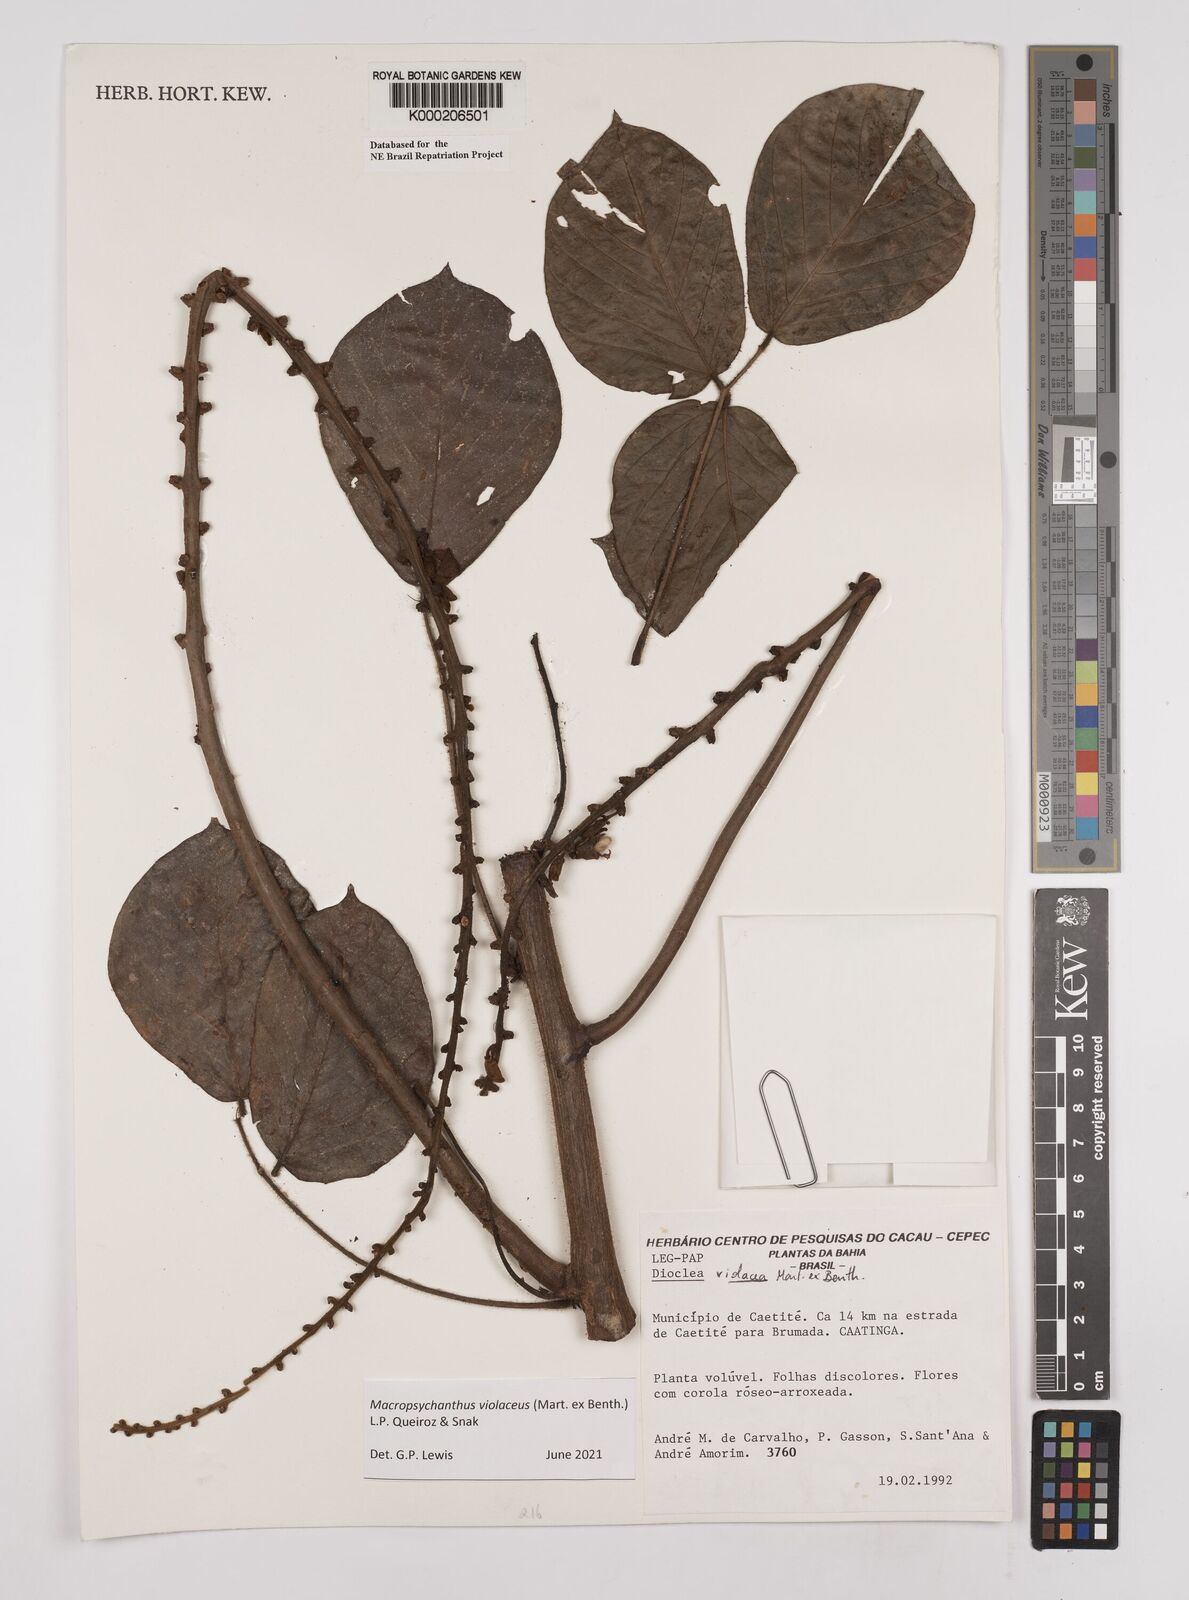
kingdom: Plantae
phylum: Tracheophyta
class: Magnoliopsida
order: Fabales
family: Fabaceae
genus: Macropsychanthus
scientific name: Macropsychanthus violaceus
